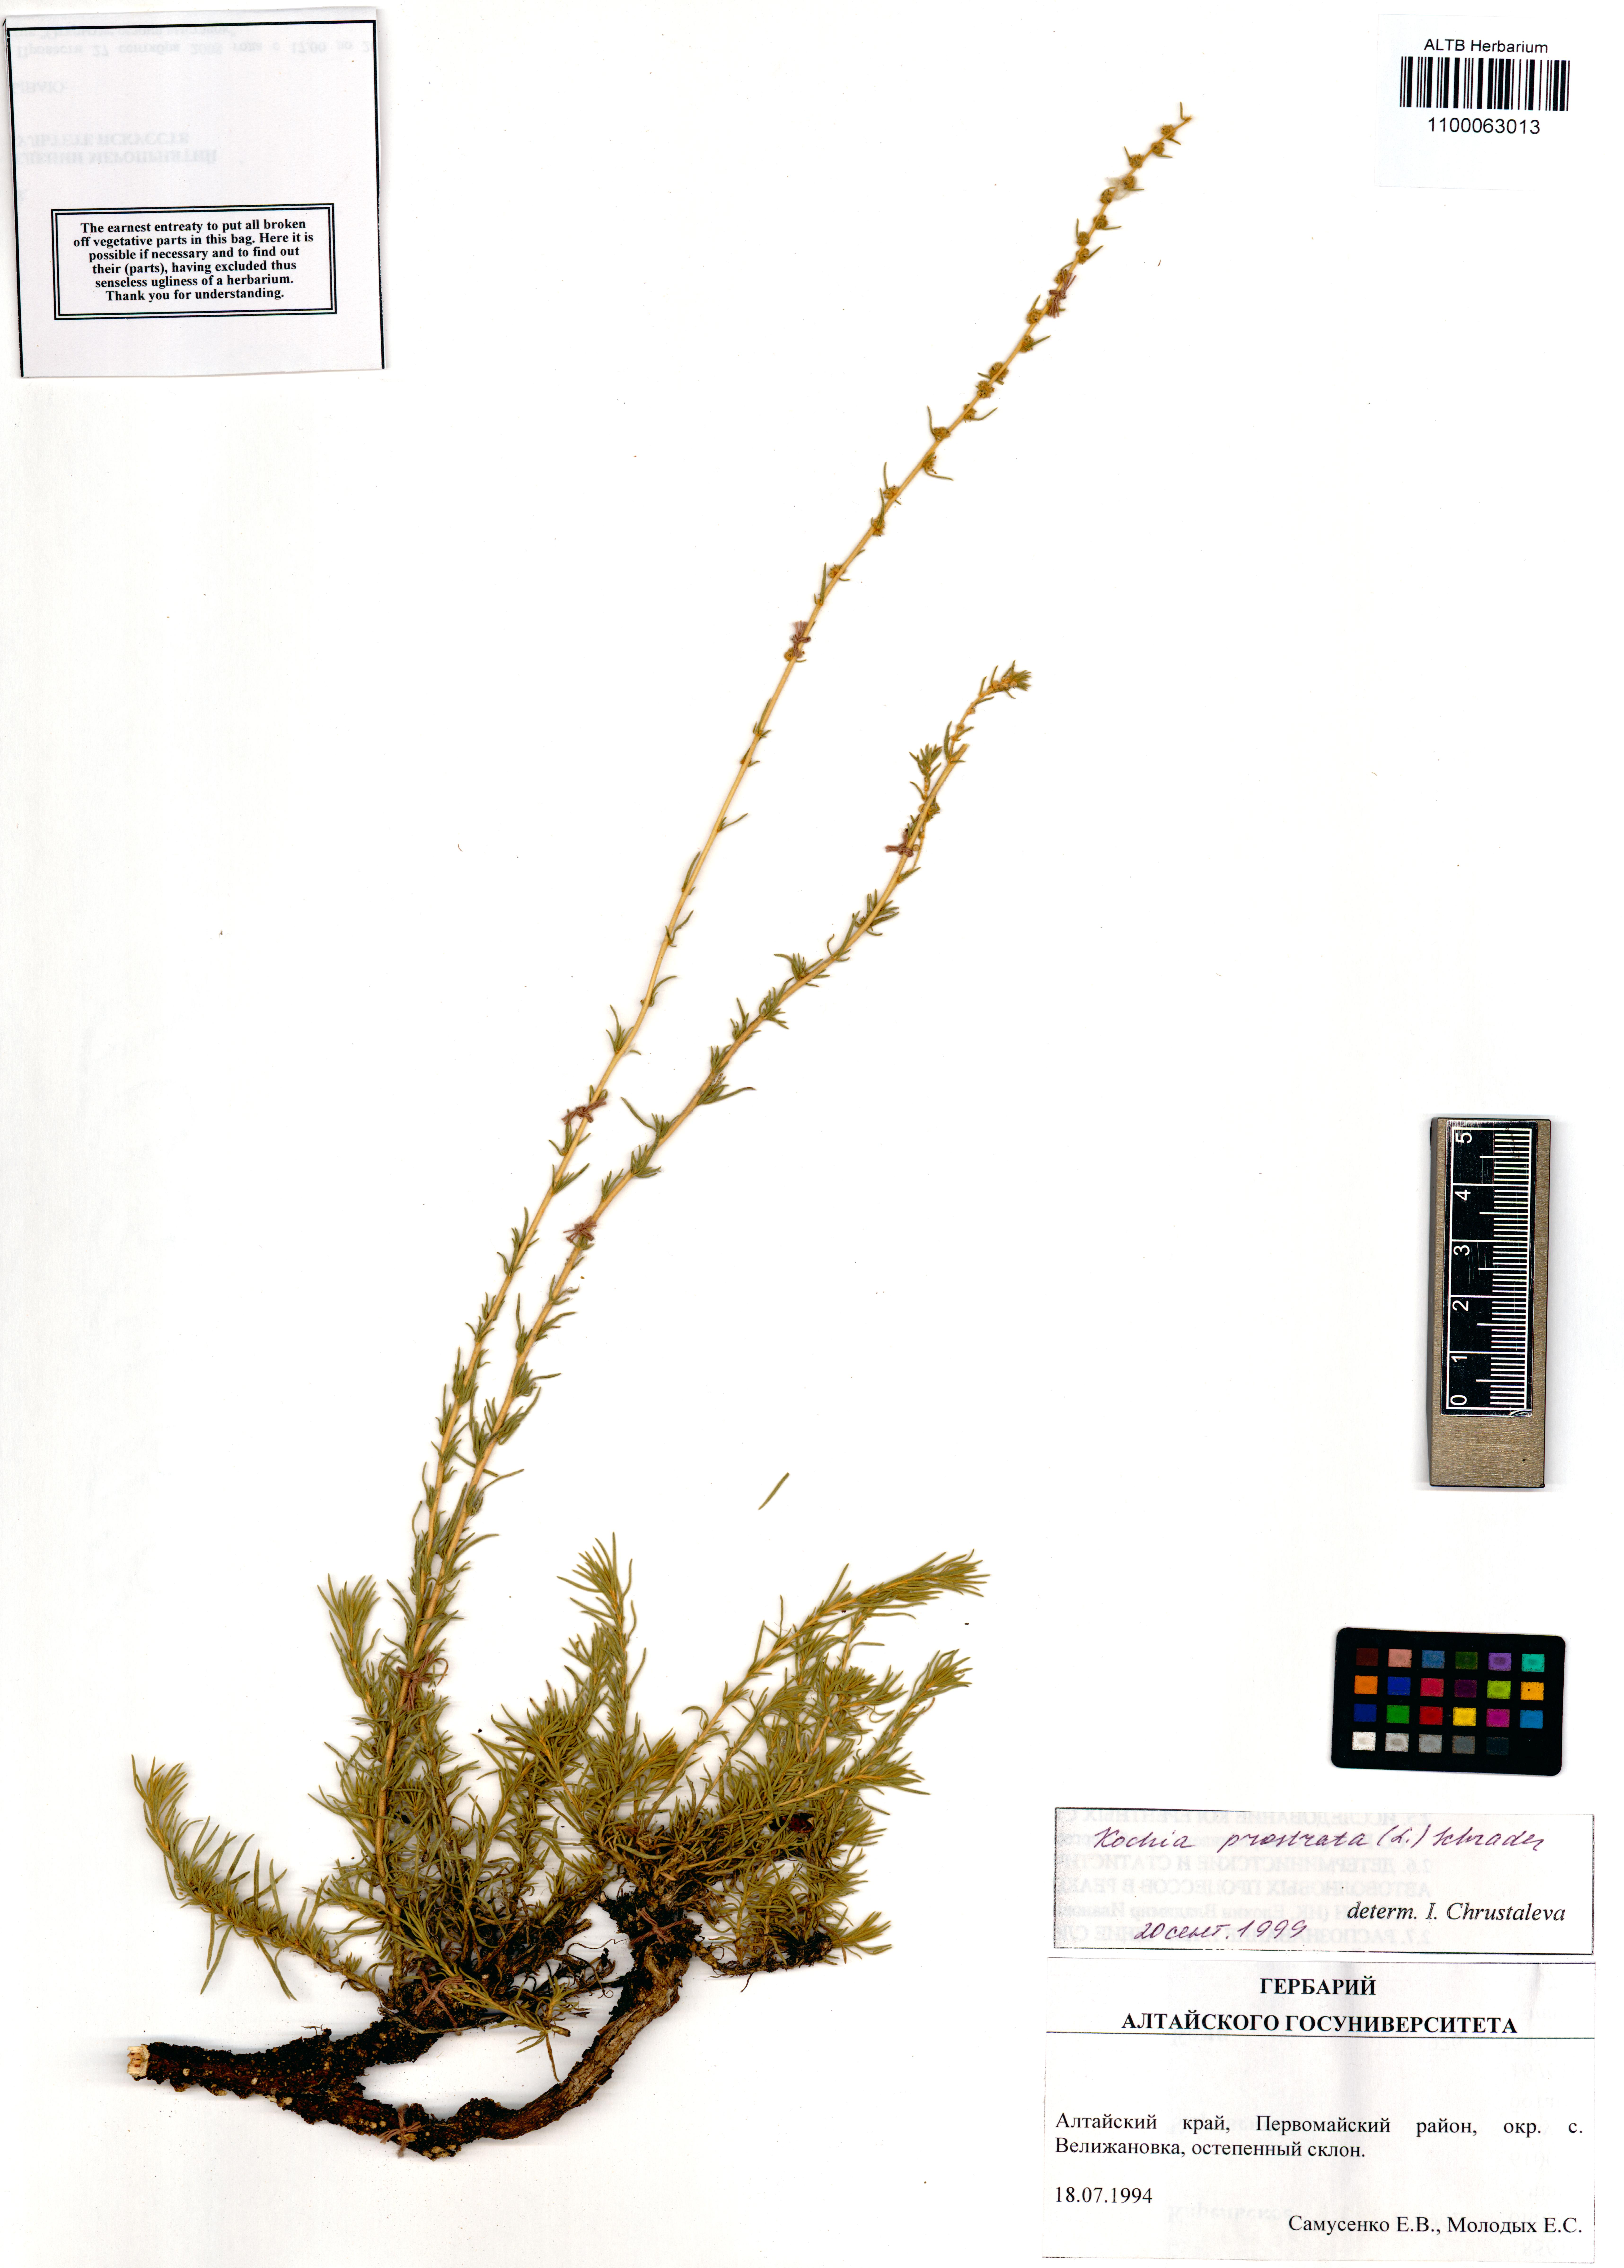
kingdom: Plantae
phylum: Tracheophyta
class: Magnoliopsida
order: Caryophyllales
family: Amaranthaceae
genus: Bassia
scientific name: Bassia prostrata
